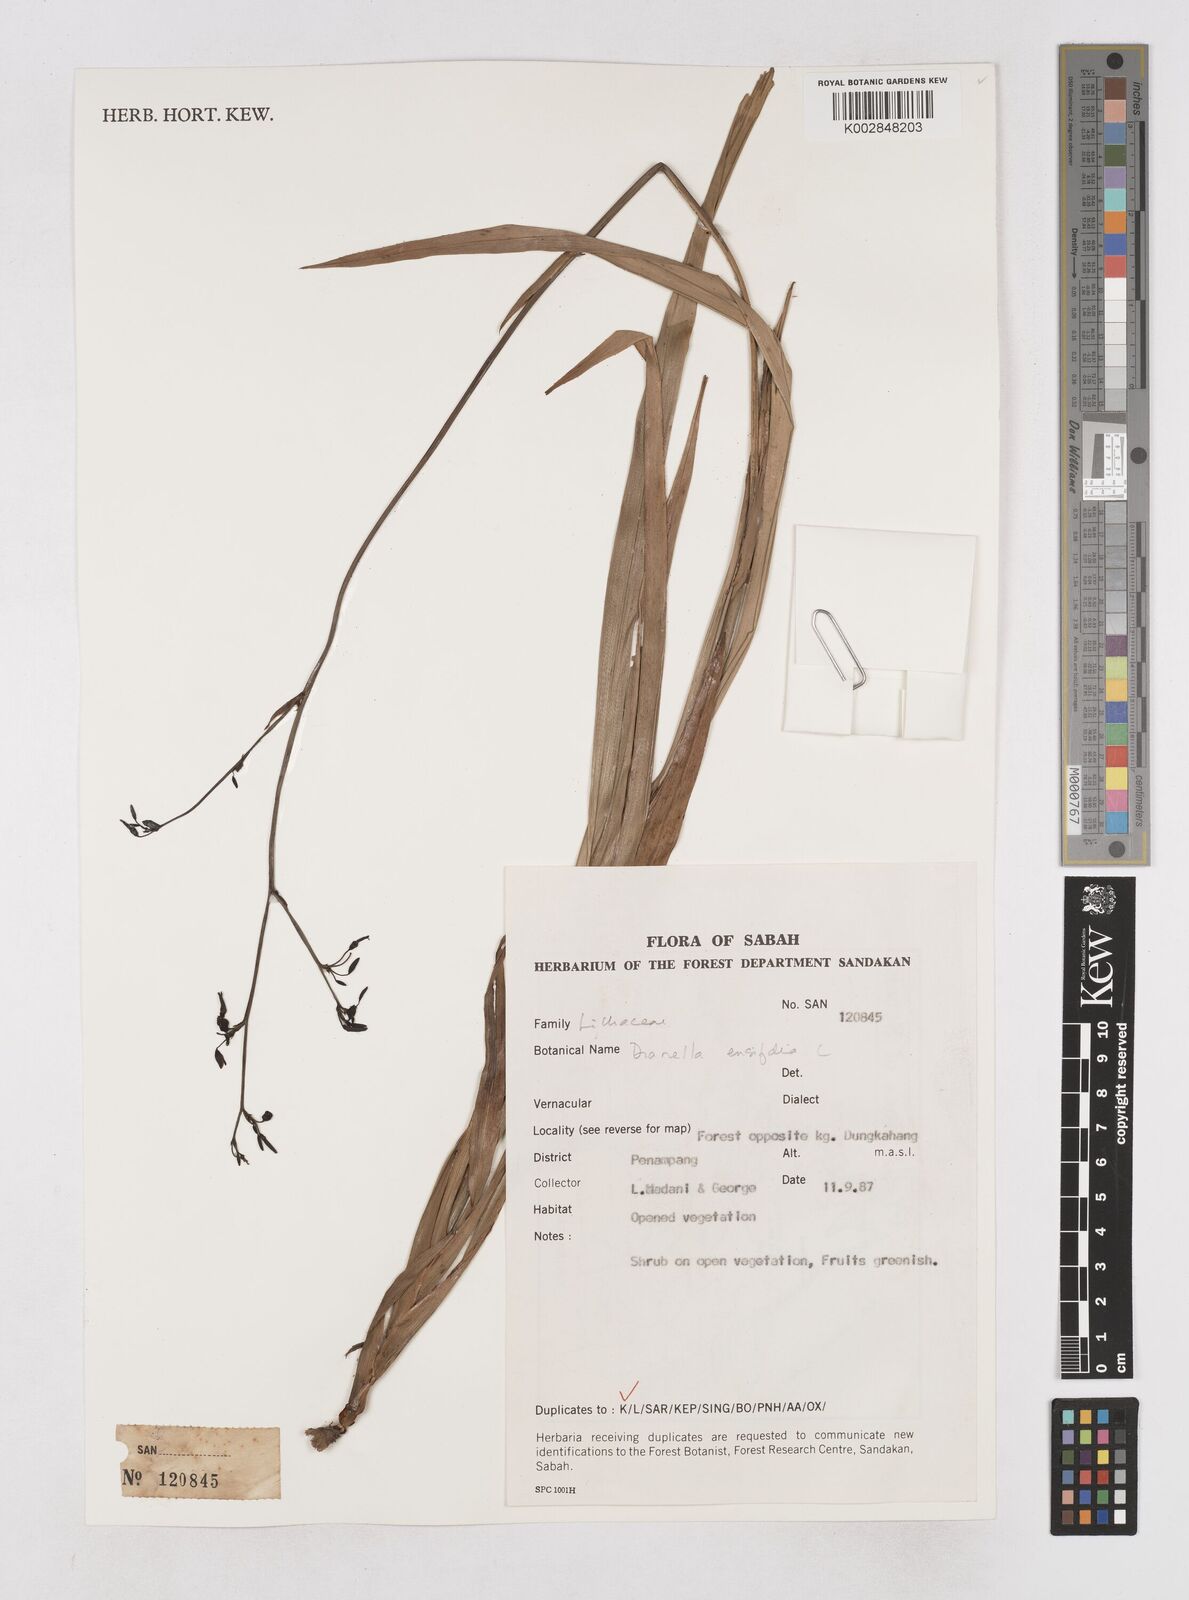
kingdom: Plantae
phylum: Tracheophyta
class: Liliopsida
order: Asparagales
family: Asphodelaceae
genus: Dianella
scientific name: Dianella ensifolia
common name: New zealand lilyplant
